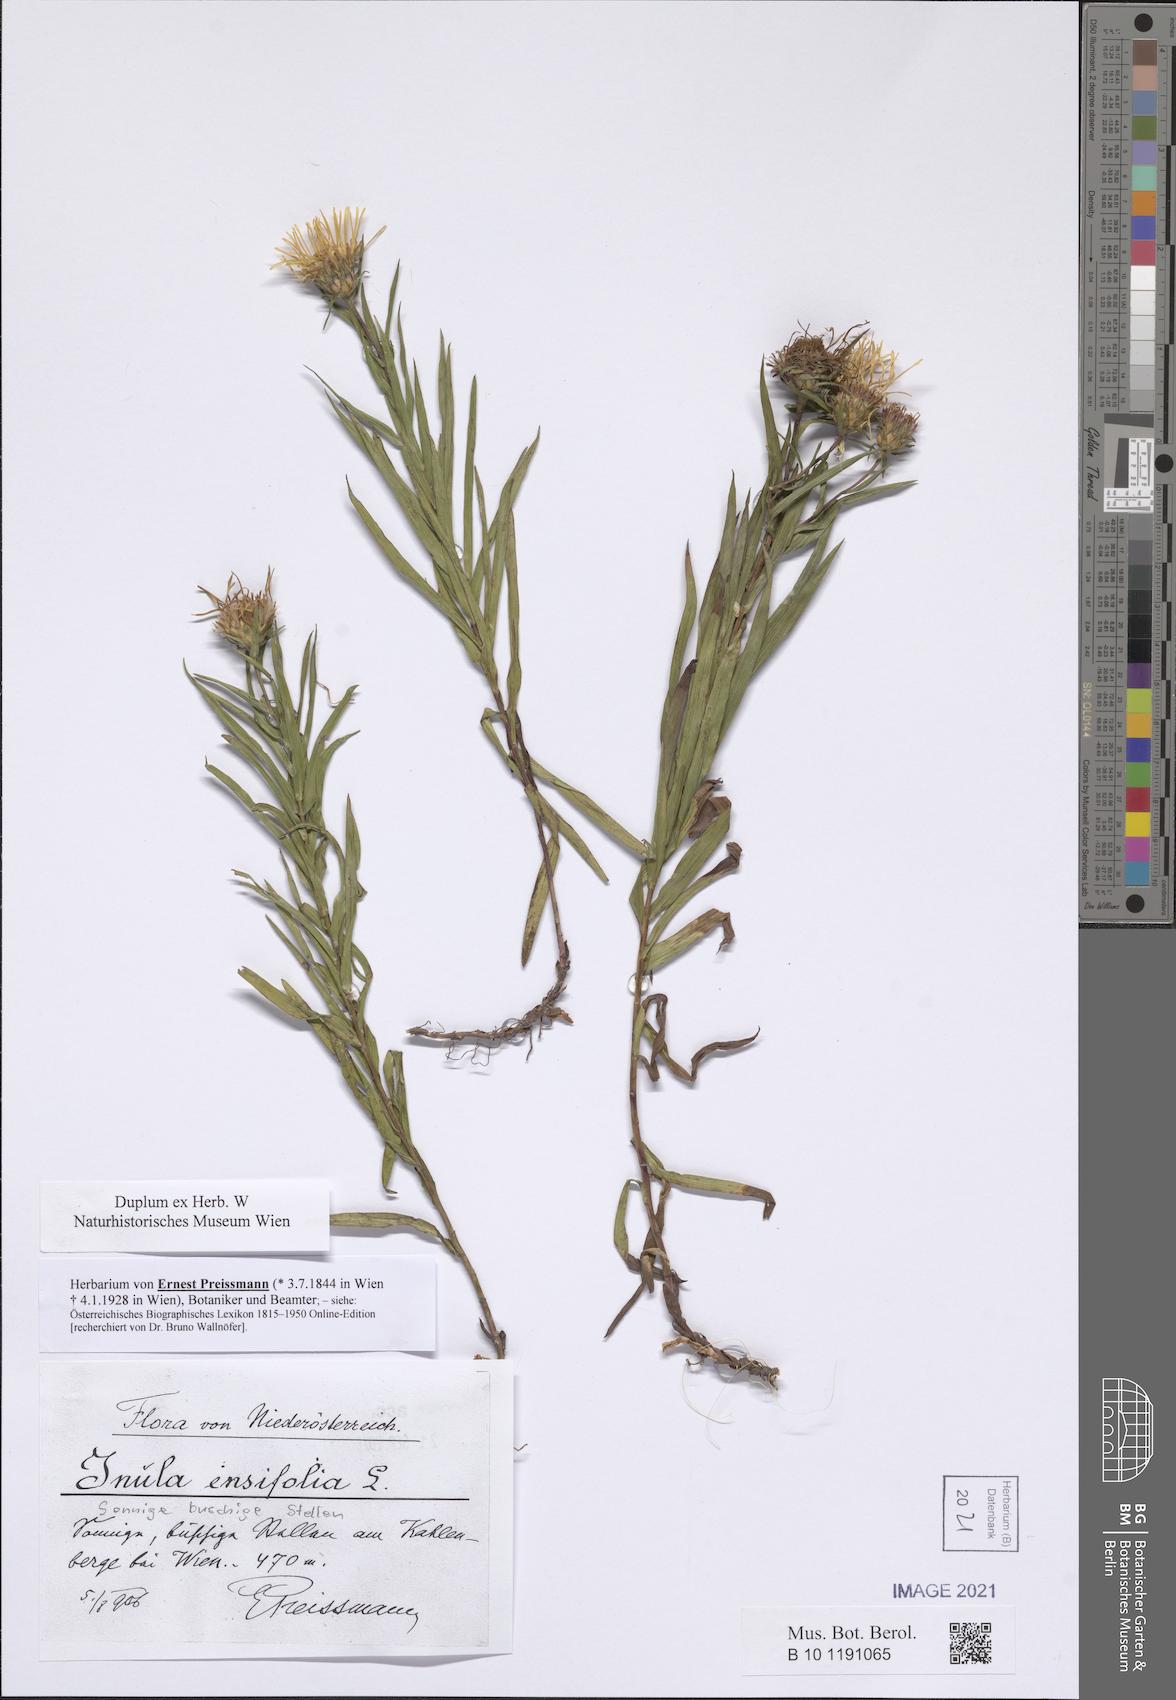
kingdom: Plantae
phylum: Tracheophyta
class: Magnoliopsida
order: Asterales
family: Asteraceae
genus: Pentanema
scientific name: Pentanema ensifolium
